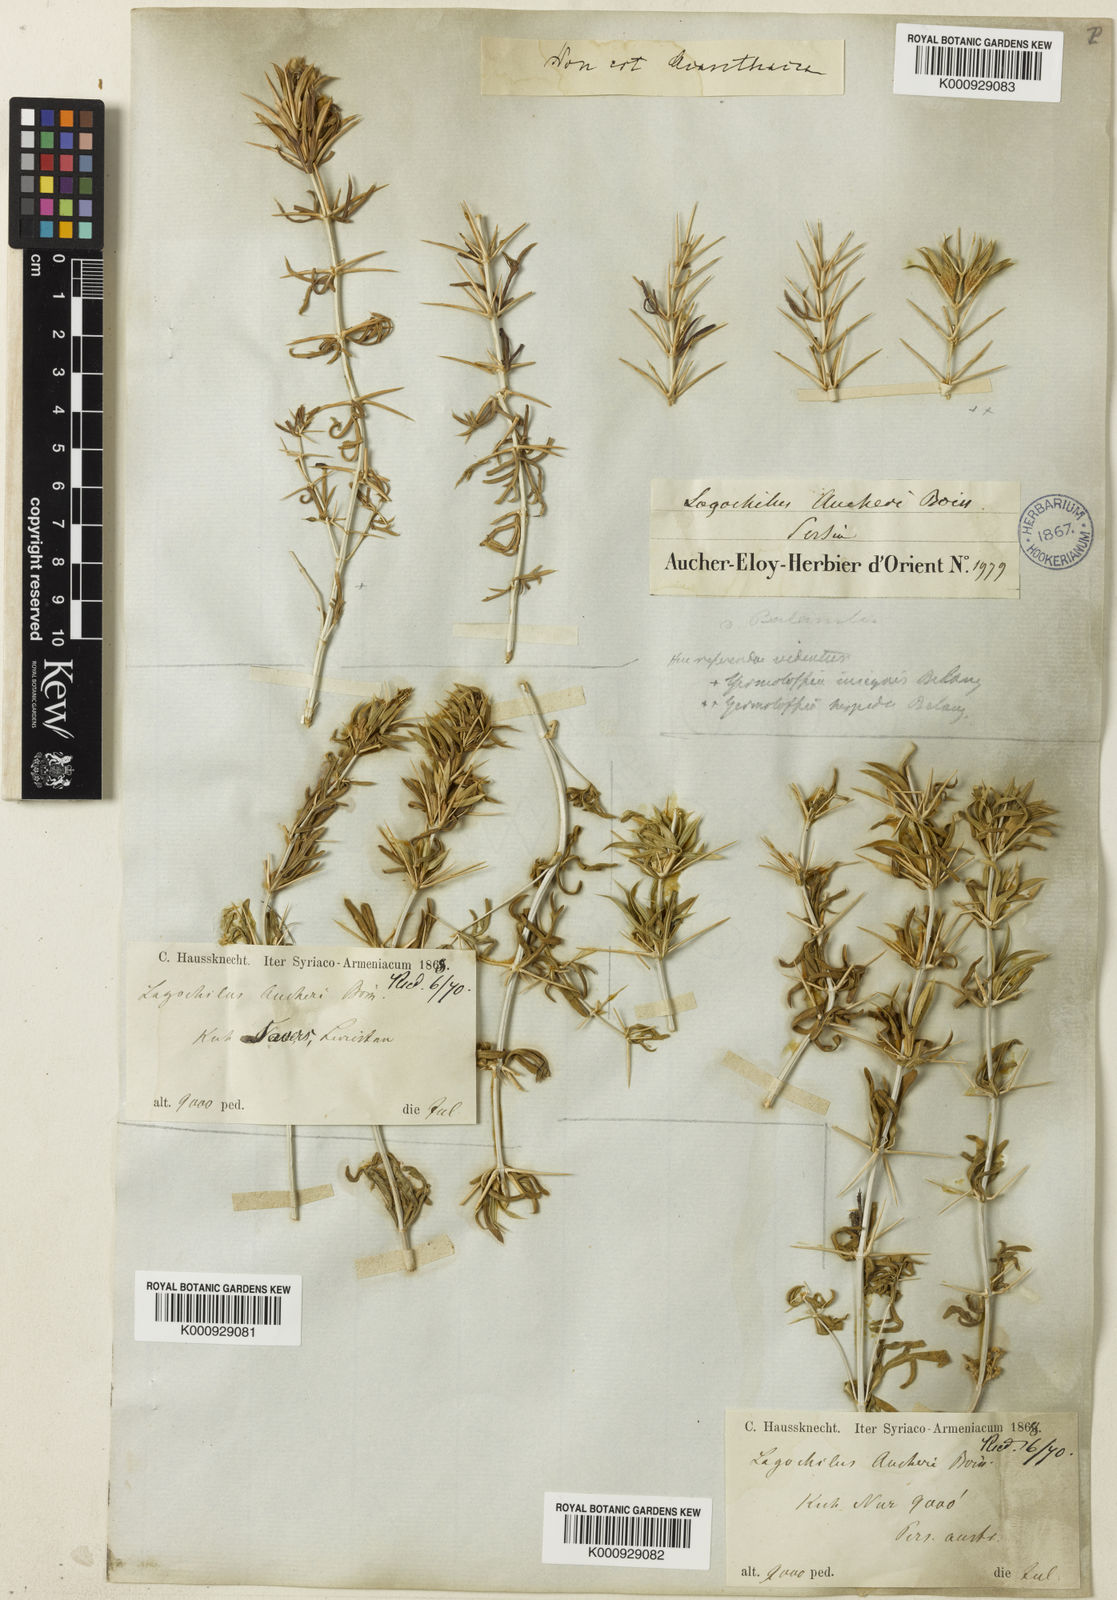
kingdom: Plantae
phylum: Tracheophyta
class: Magnoliopsida
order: Lamiales
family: Lamiaceae
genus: Lagochilus
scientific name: Lagochilus aucheri
